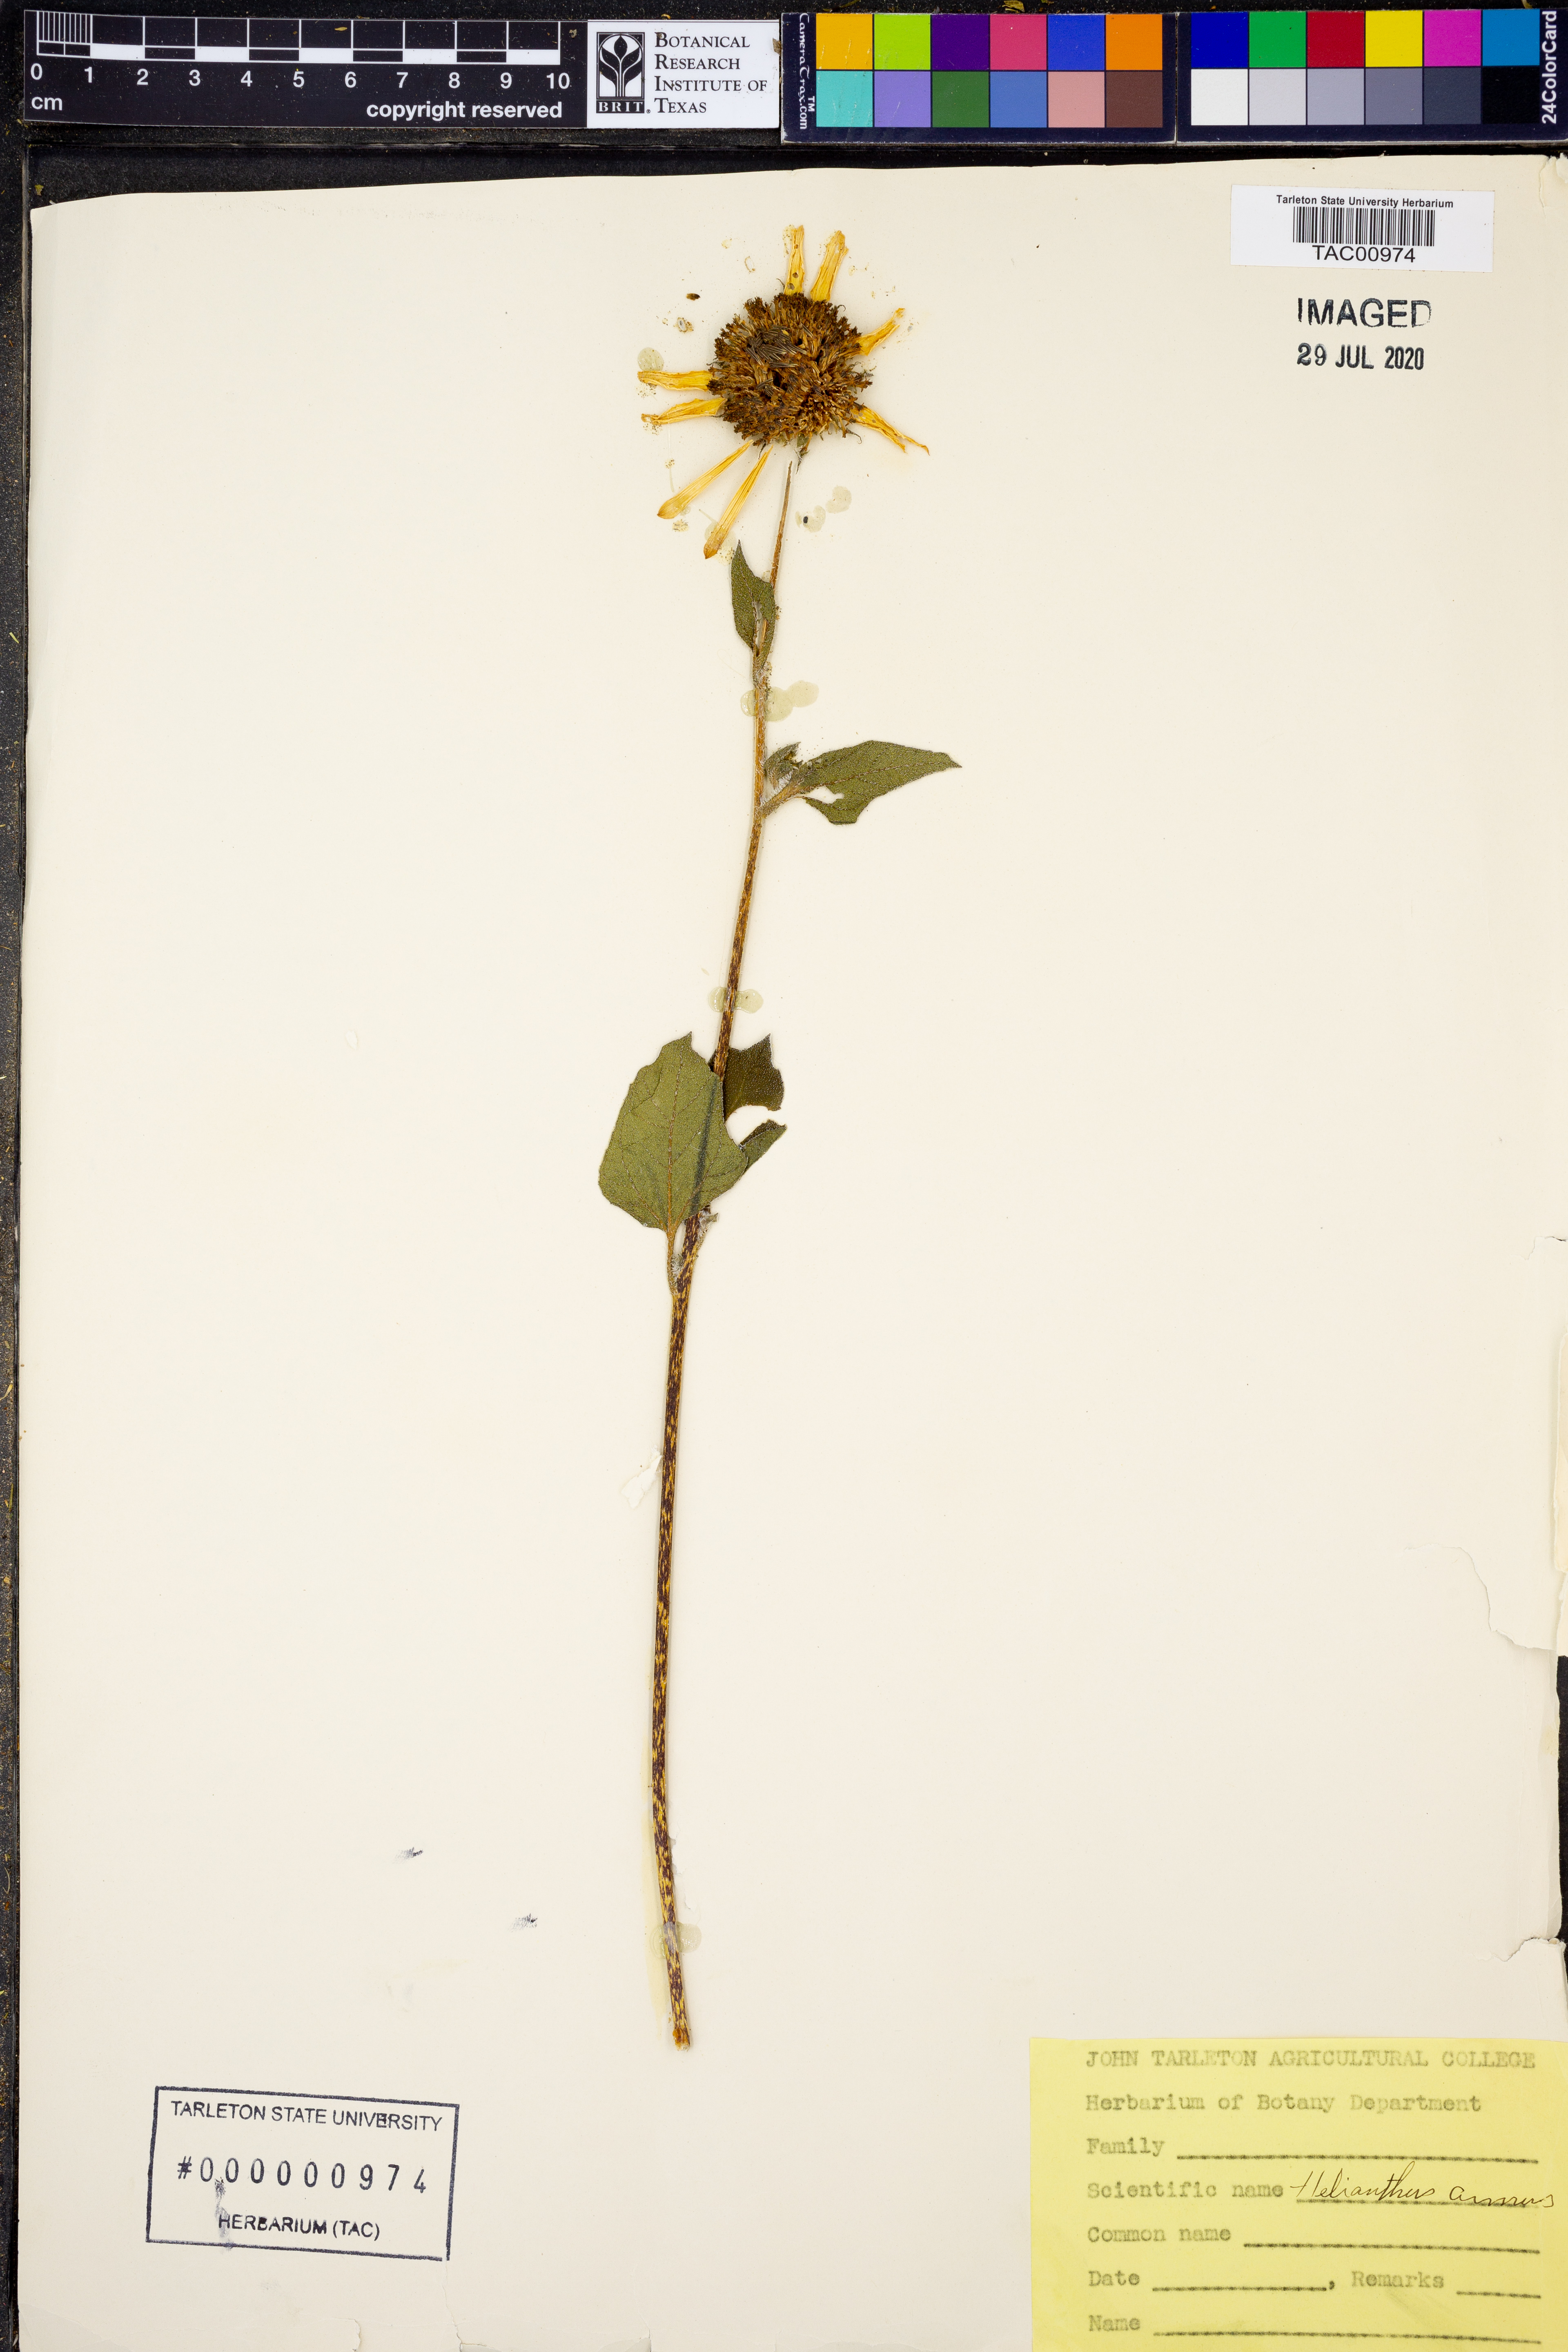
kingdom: Plantae
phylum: Tracheophyta
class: Magnoliopsida
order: Asterales
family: Asteraceae
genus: Helianthus
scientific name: Helianthus annuus
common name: Sunflower
